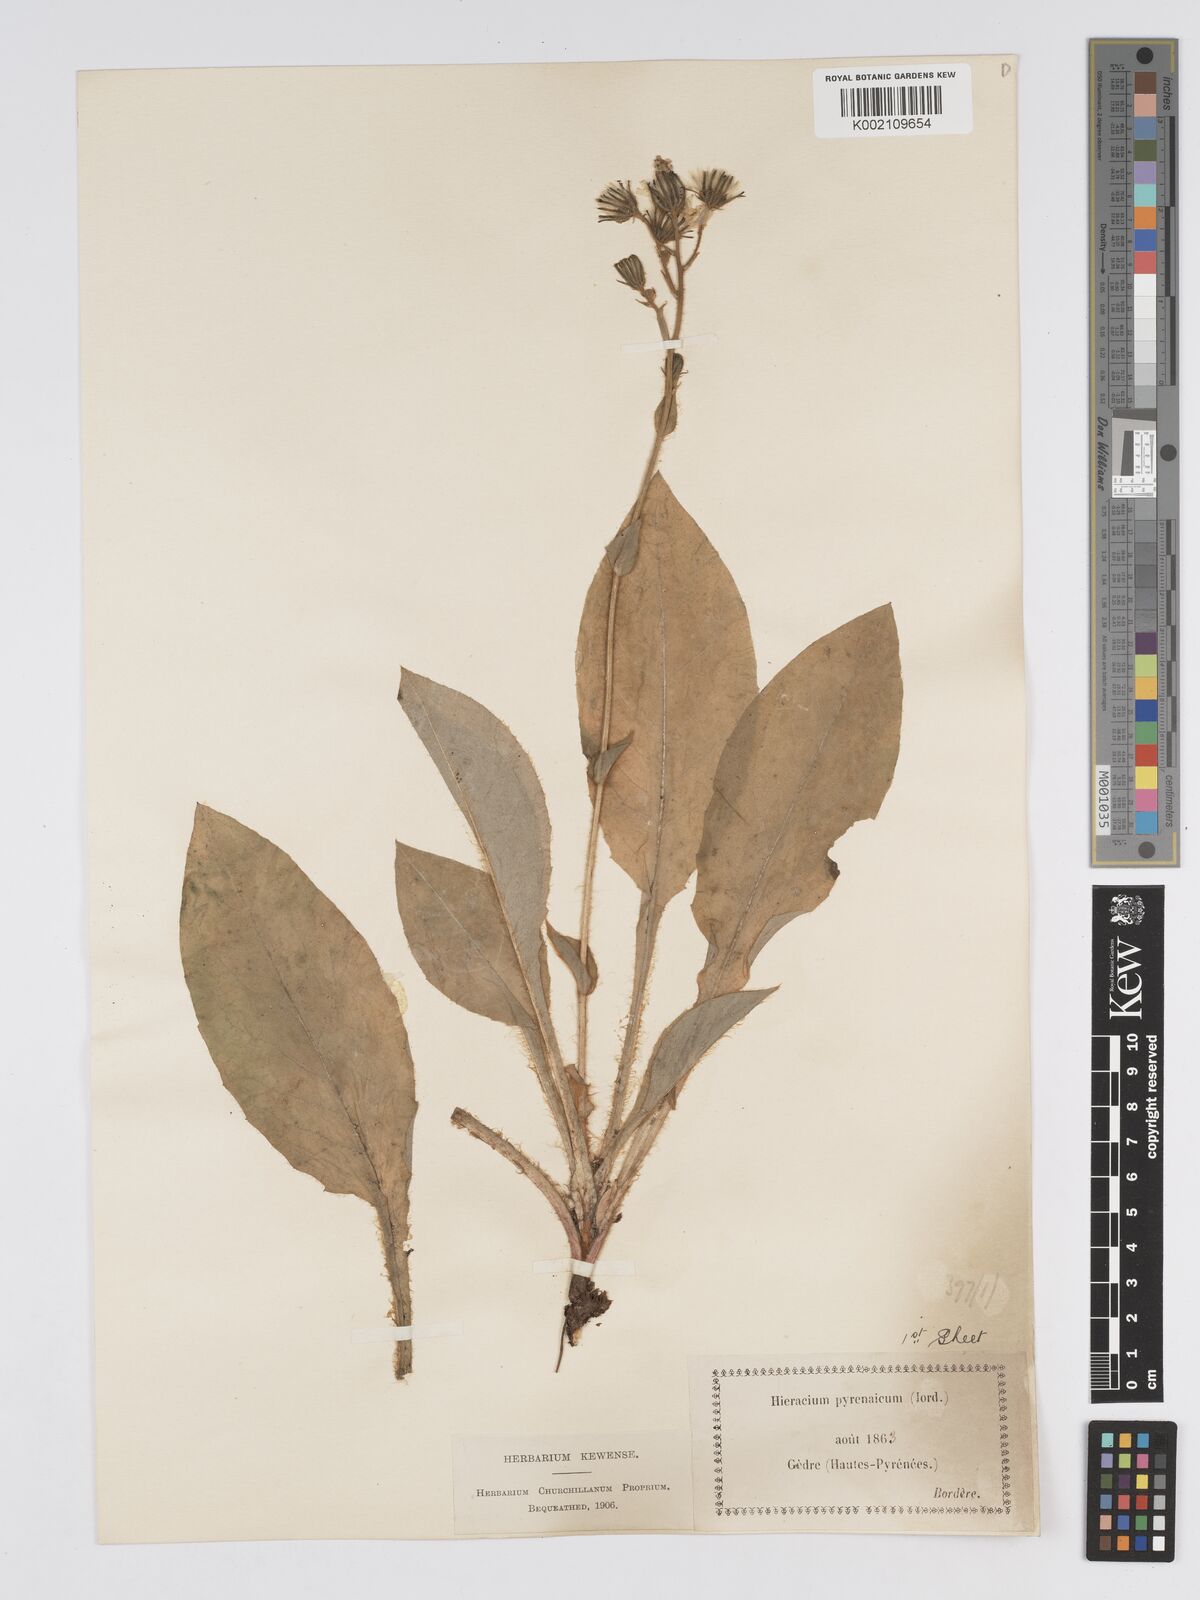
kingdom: Plantae
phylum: Tracheophyta
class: Magnoliopsida
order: Asterales
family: Asteraceae
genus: Hieracium
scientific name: Hieracium nobile
